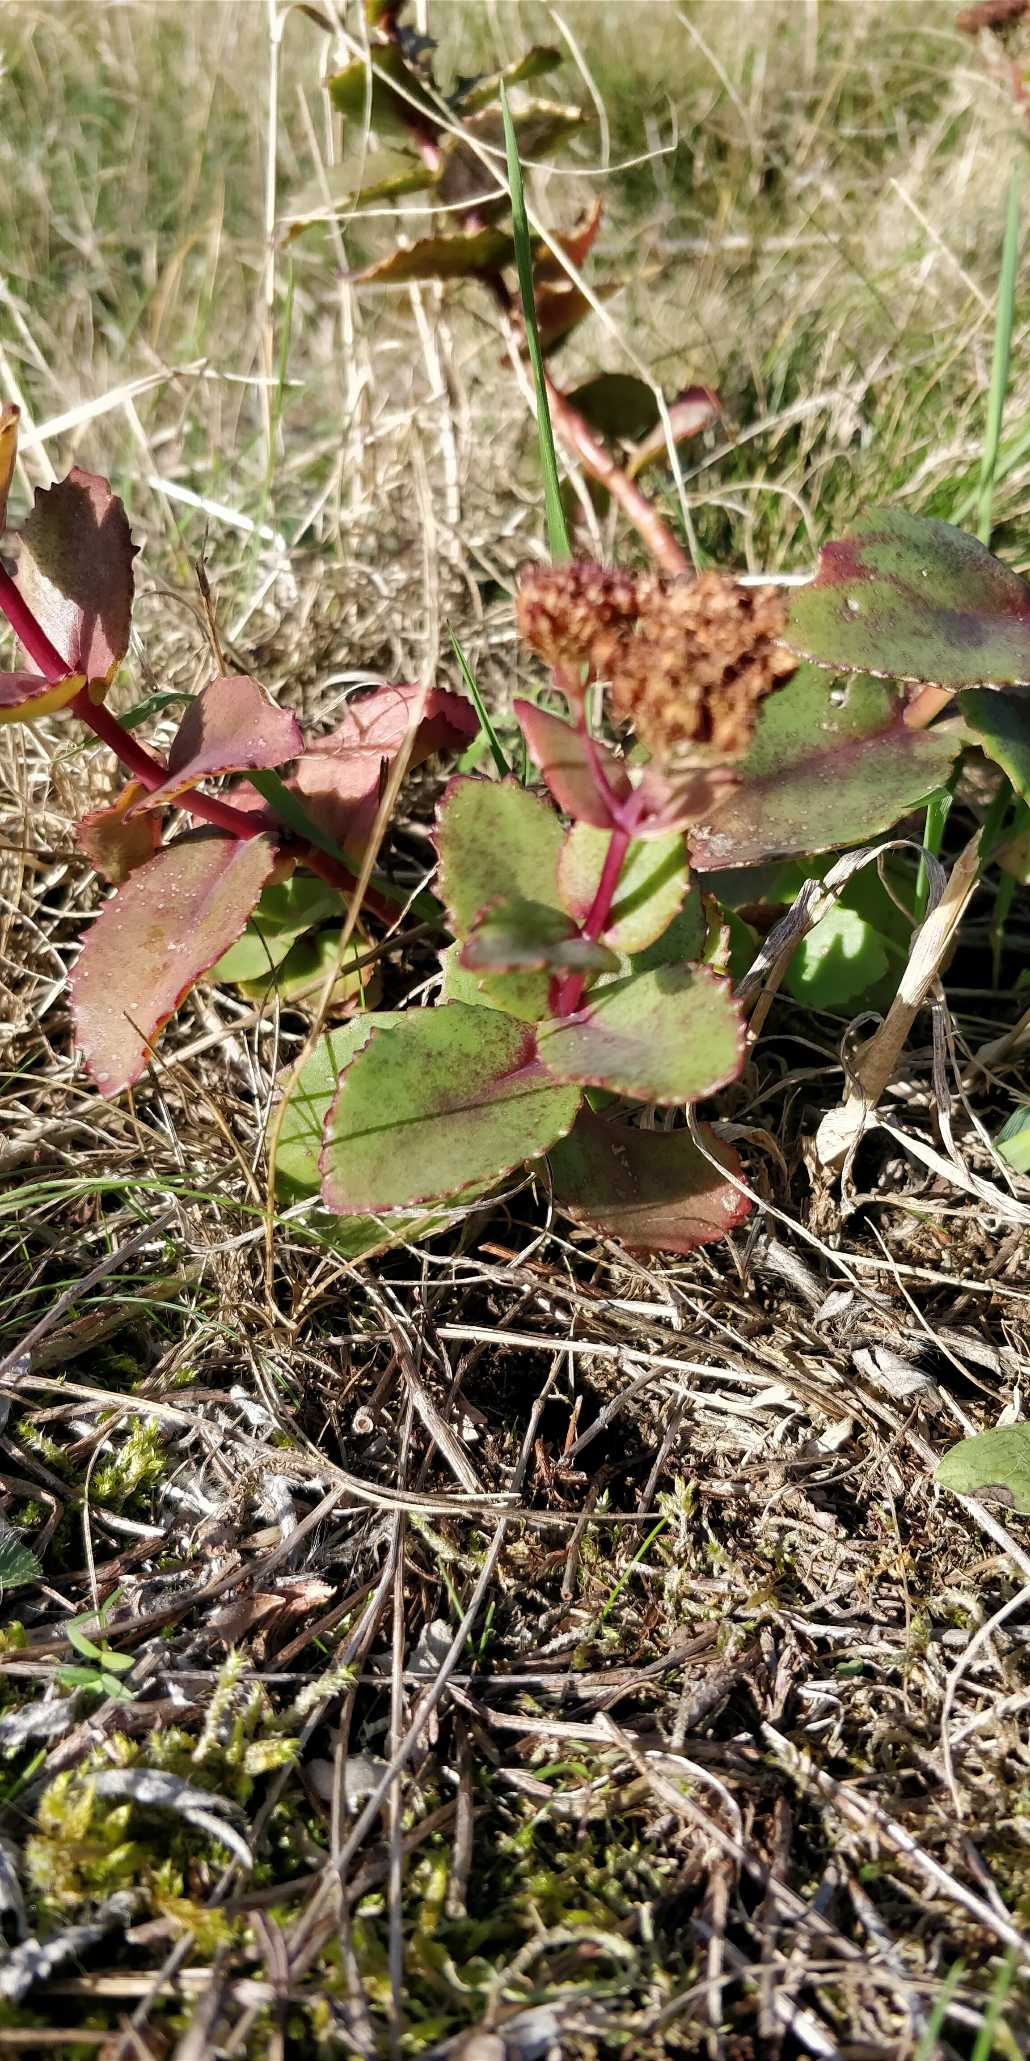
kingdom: Plantae
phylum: Tracheophyta
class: Magnoliopsida
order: Saxifragales
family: Crassulaceae
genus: Hylotelephium
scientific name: Hylotelephium maximum
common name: Almindelig sankthansurt
